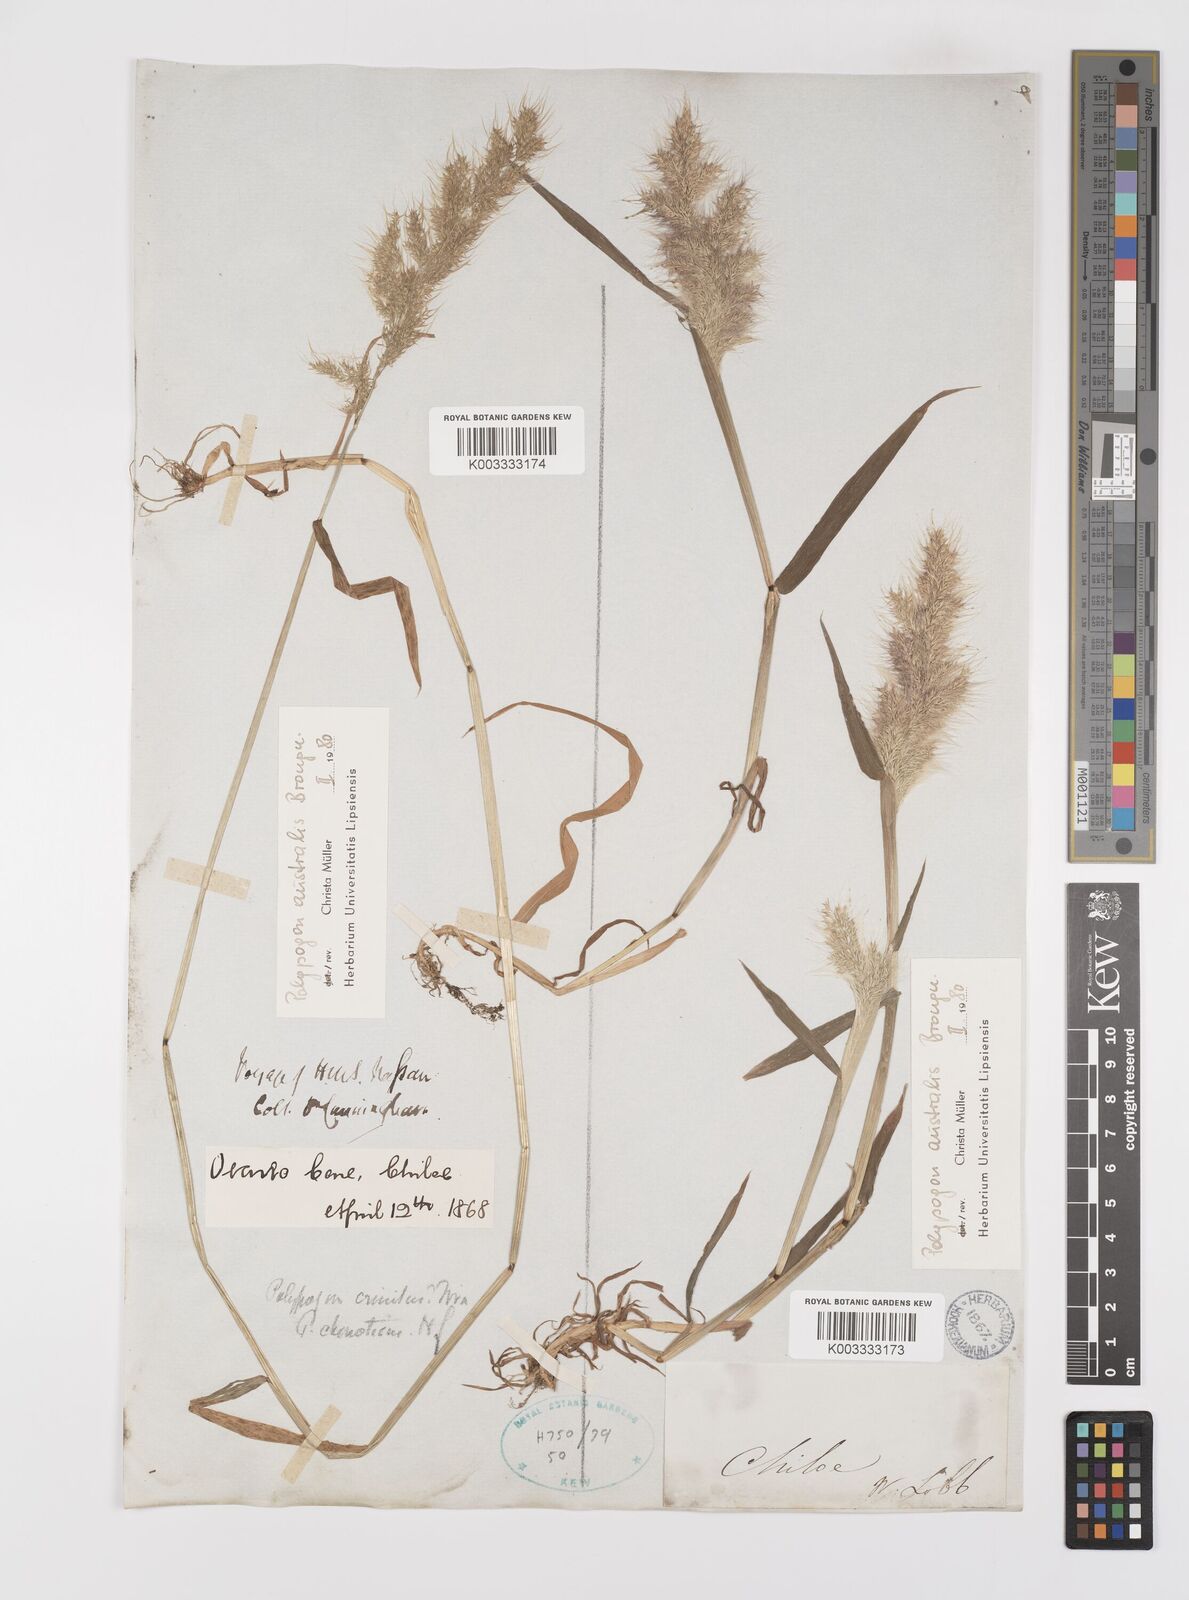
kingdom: Plantae
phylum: Tracheophyta
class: Liliopsida
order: Poales
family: Poaceae
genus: Polypogon
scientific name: Polypogon australis
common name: Chilean rabbitsfoot grass
